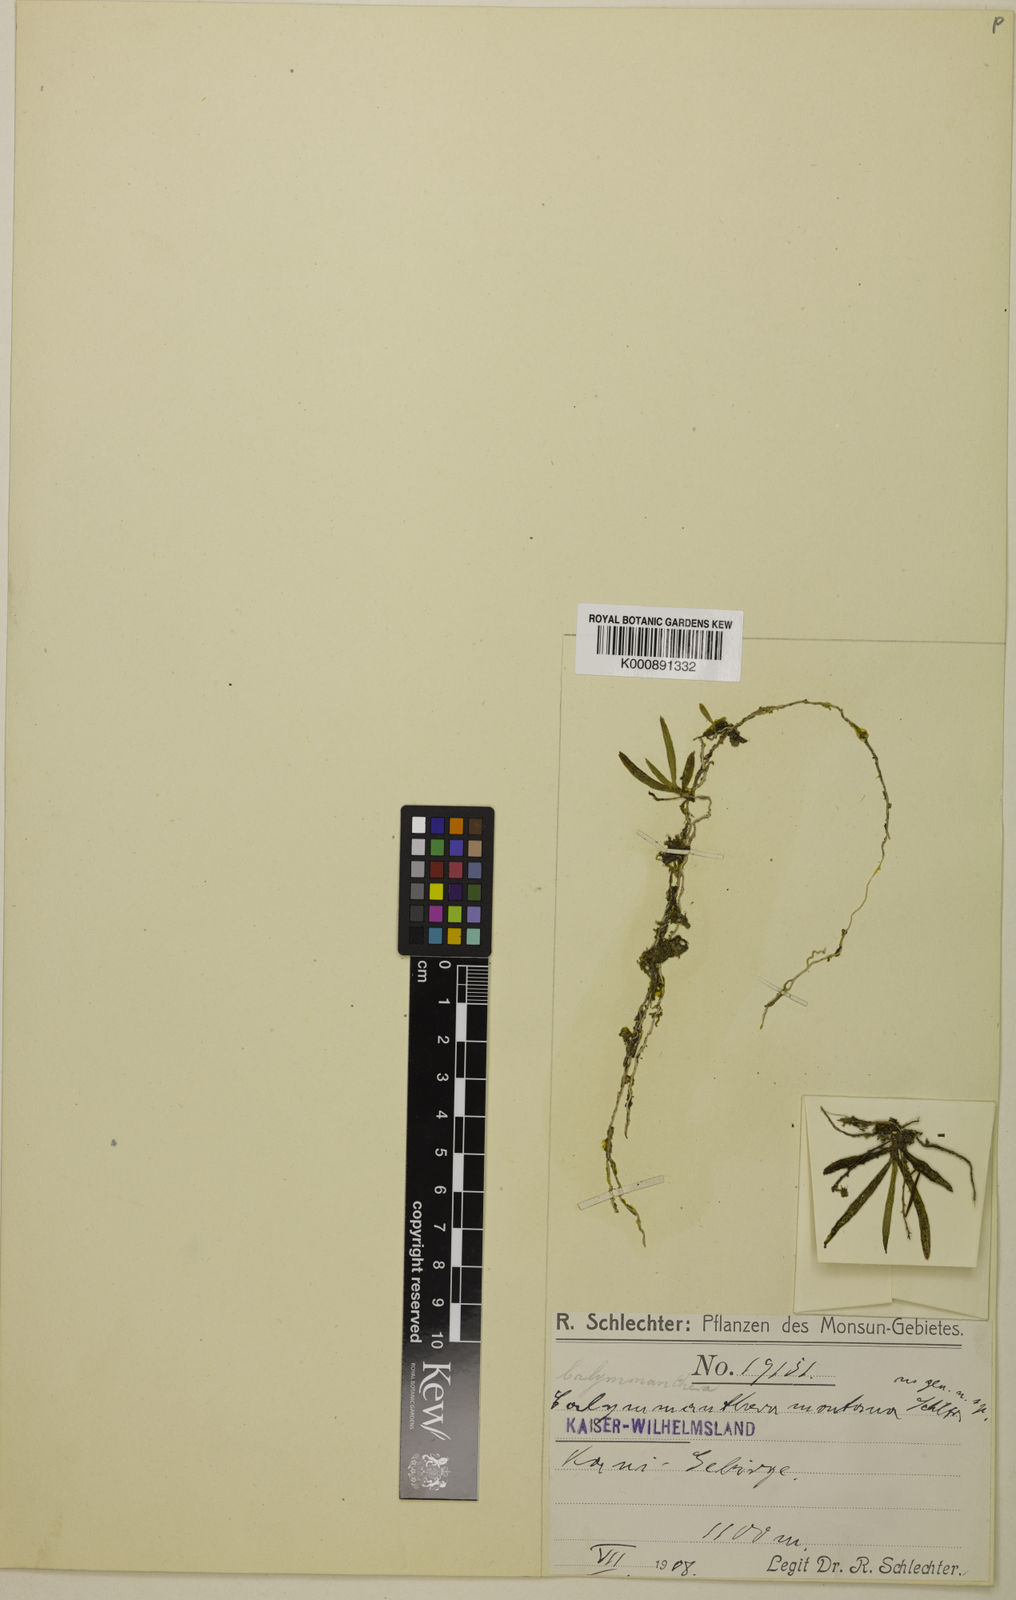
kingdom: Plantae
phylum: Tracheophyta
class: Liliopsida
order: Asparagales
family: Orchidaceae
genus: Calymmanthera
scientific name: Calymmanthera montana
